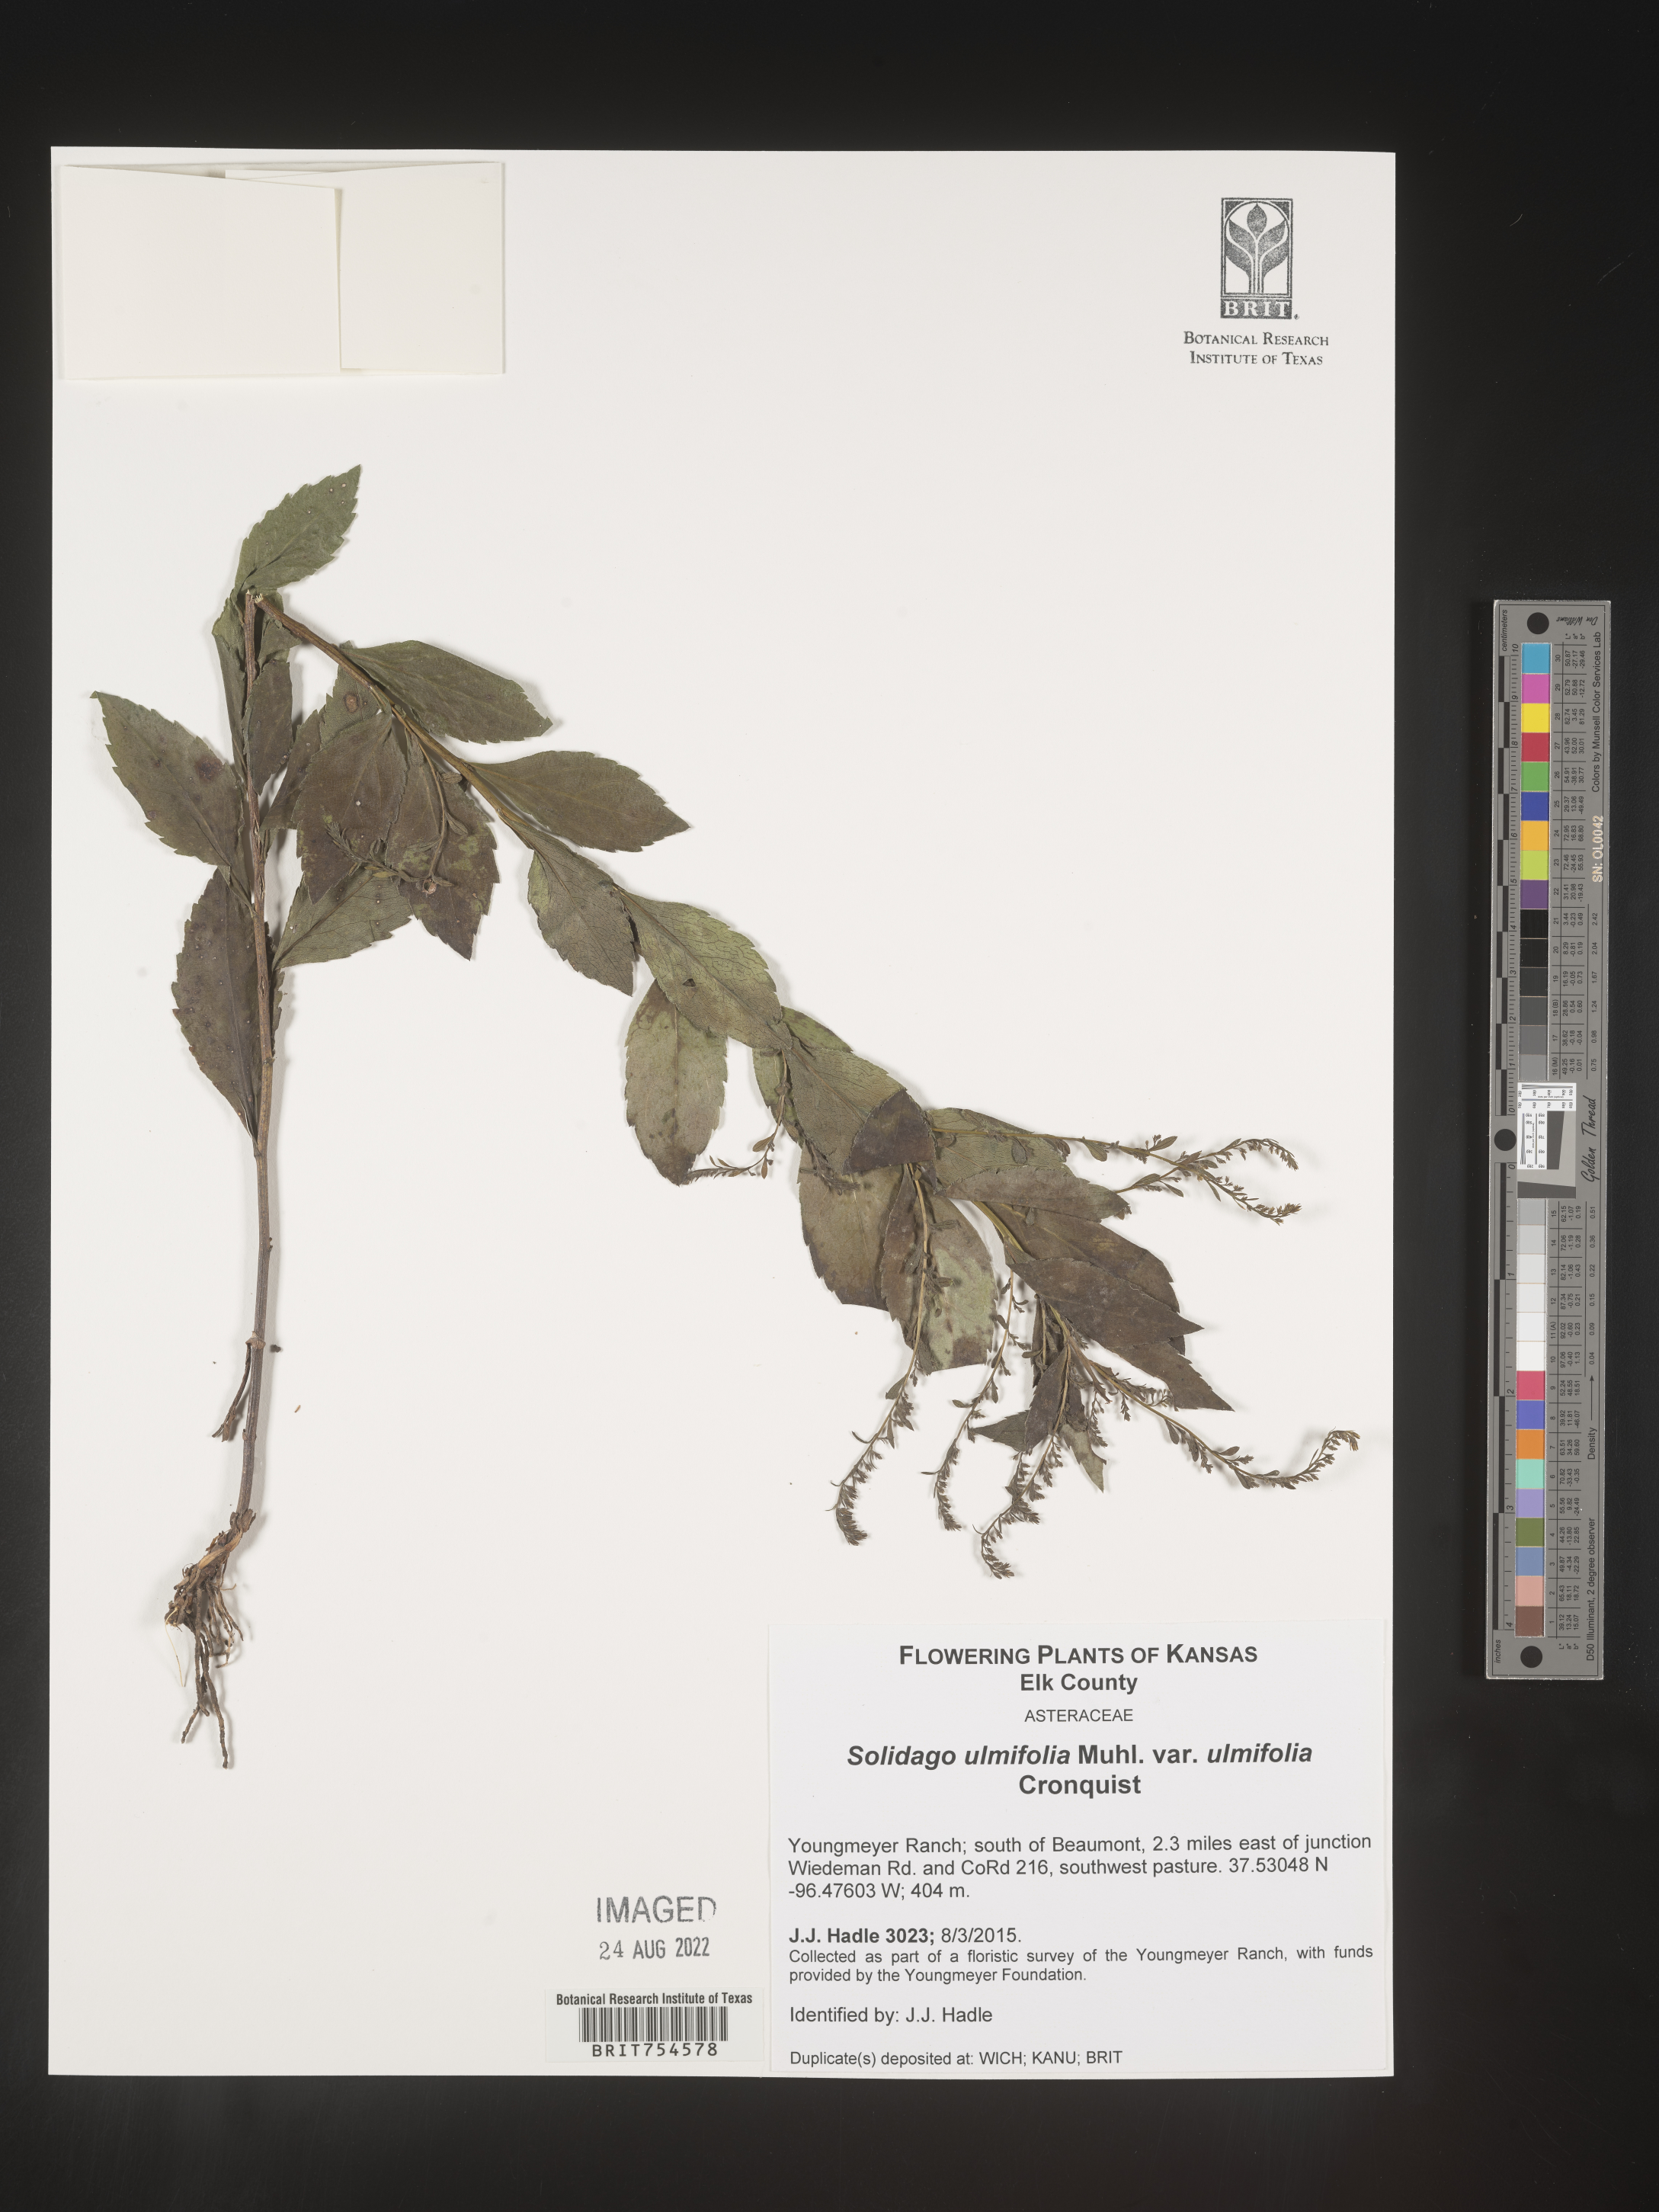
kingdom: Plantae
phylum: Tracheophyta
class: Magnoliopsida
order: Asterales
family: Asteraceae
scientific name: Asteraceae
